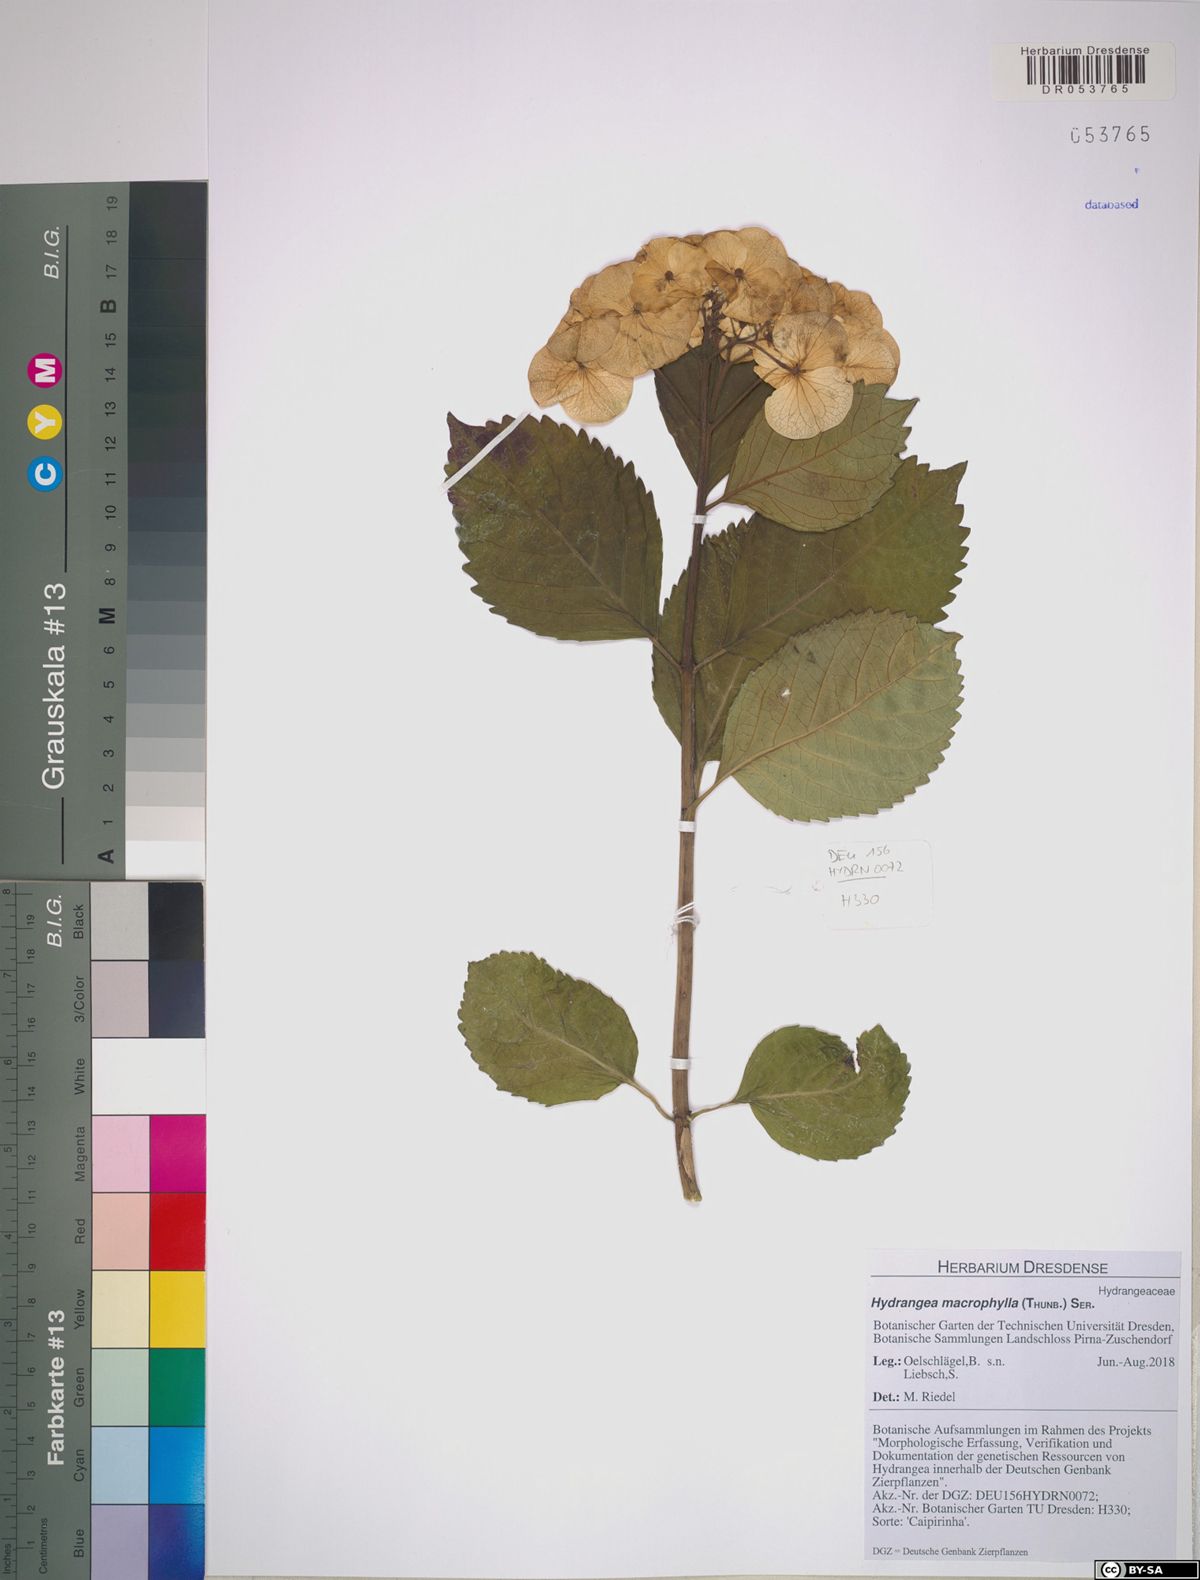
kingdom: Plantae
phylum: Tracheophyta
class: Magnoliopsida
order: Cornales
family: Hydrangeaceae
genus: Hydrangea
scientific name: Hydrangea macrophylla
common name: Hydrangea
